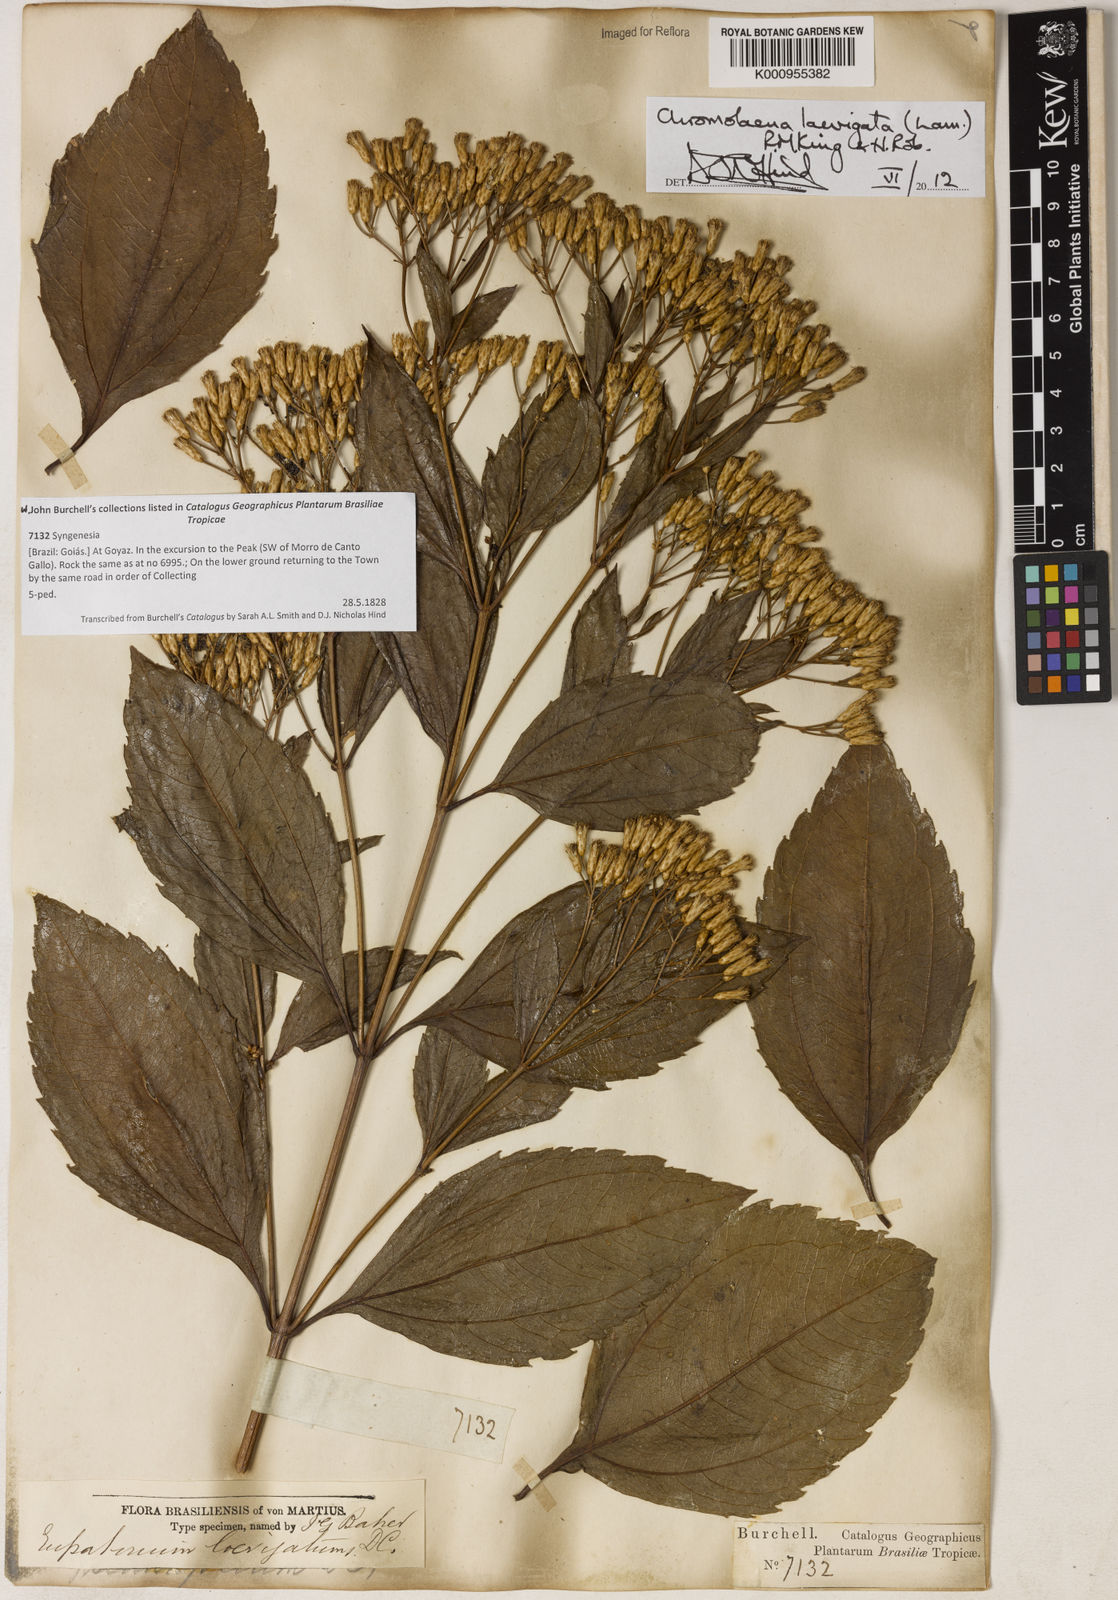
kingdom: Plantae
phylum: Tracheophyta
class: Magnoliopsida
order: Asterales
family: Asteraceae
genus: Chromolaena
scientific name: Chromolaena laevigata
